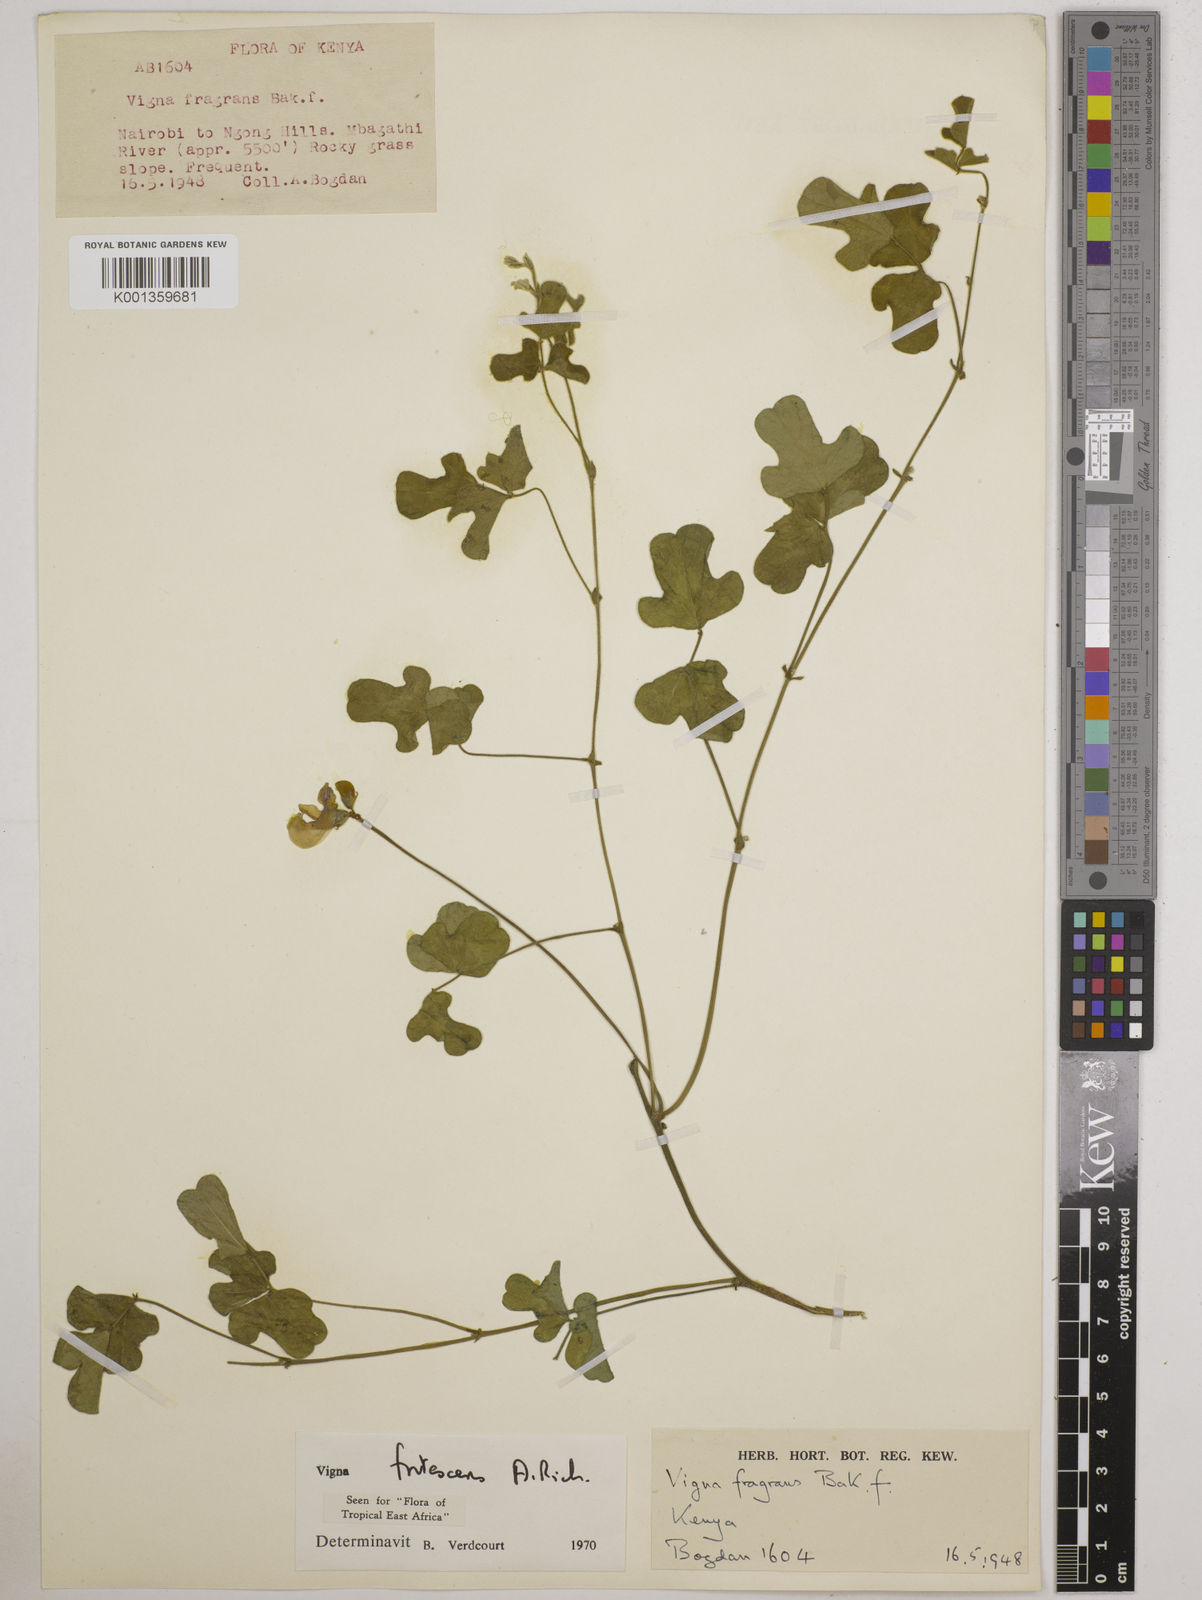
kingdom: Plantae
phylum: Tracheophyta
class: Magnoliopsida
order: Fabales
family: Fabaceae
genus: Vigna
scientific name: Vigna frutescens
